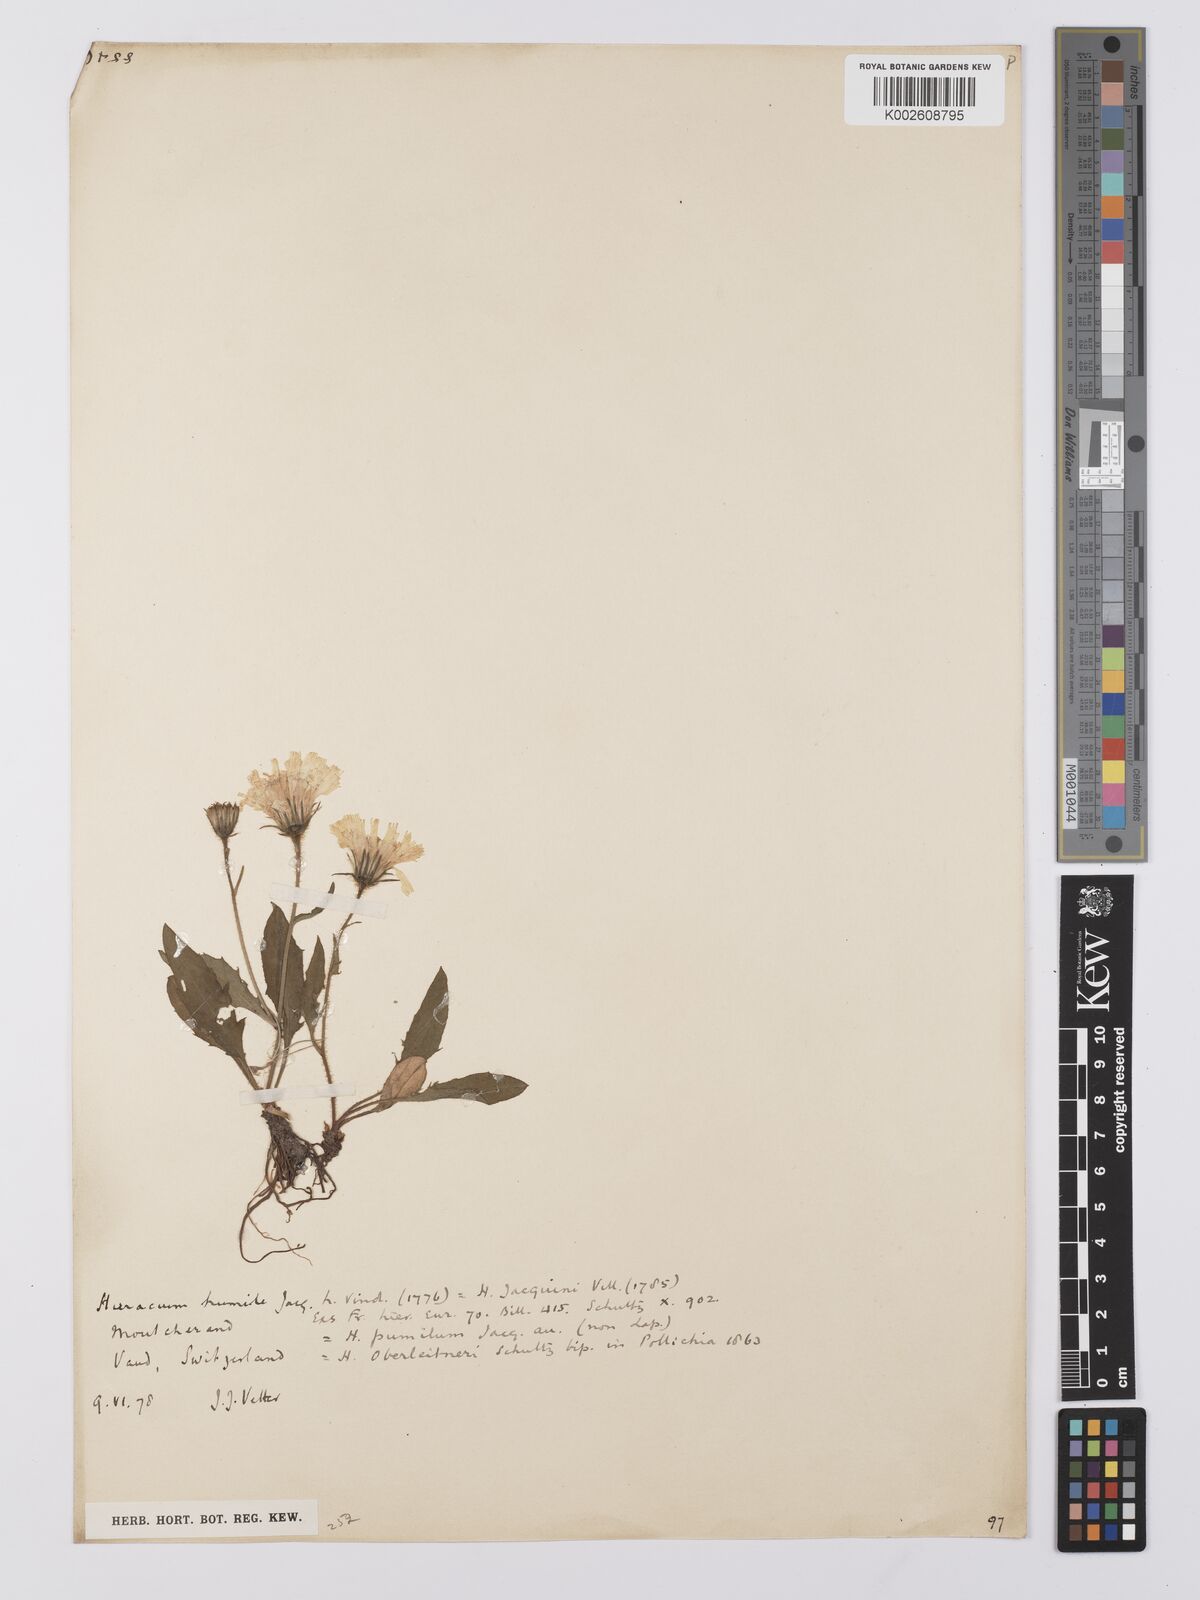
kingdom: Plantae
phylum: Tracheophyta
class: Magnoliopsida
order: Asterales
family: Asteraceae
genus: Hieracium
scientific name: Hieracium humile
